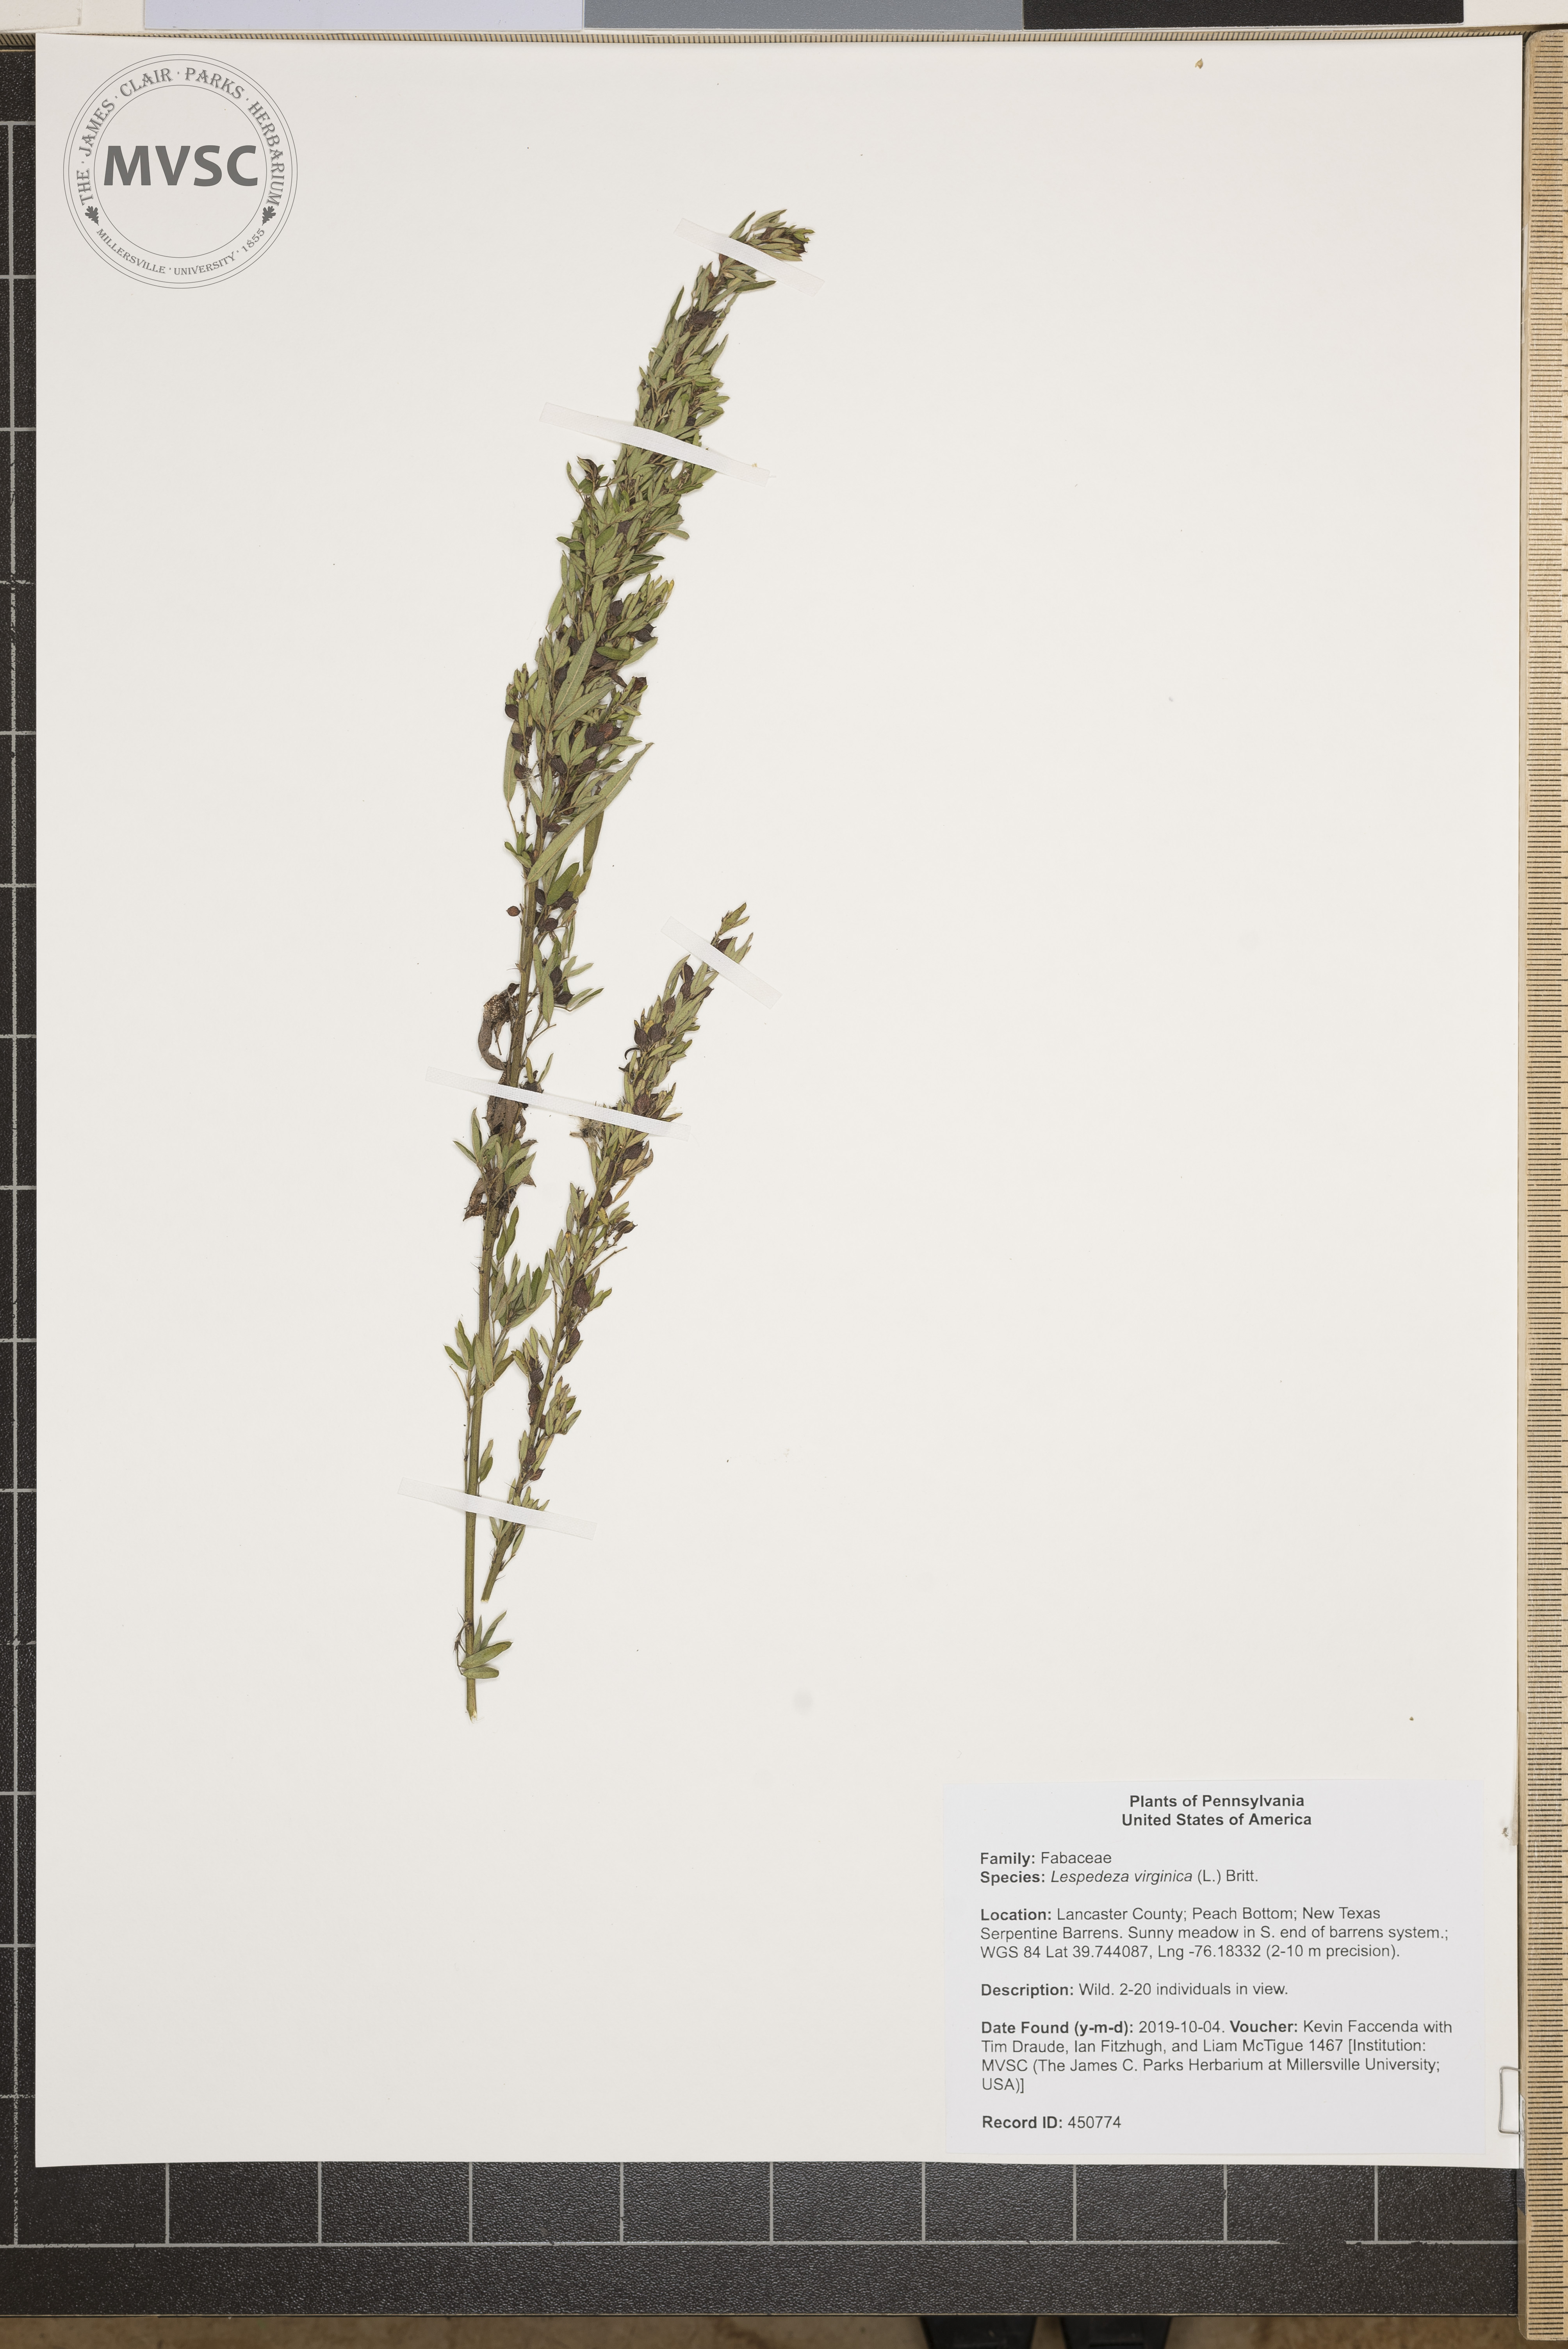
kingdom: Plantae
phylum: Tracheophyta
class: Magnoliopsida
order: Fabales
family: Fabaceae
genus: Lespedeza
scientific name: Lespedeza virginica
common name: Slender bush-clover
